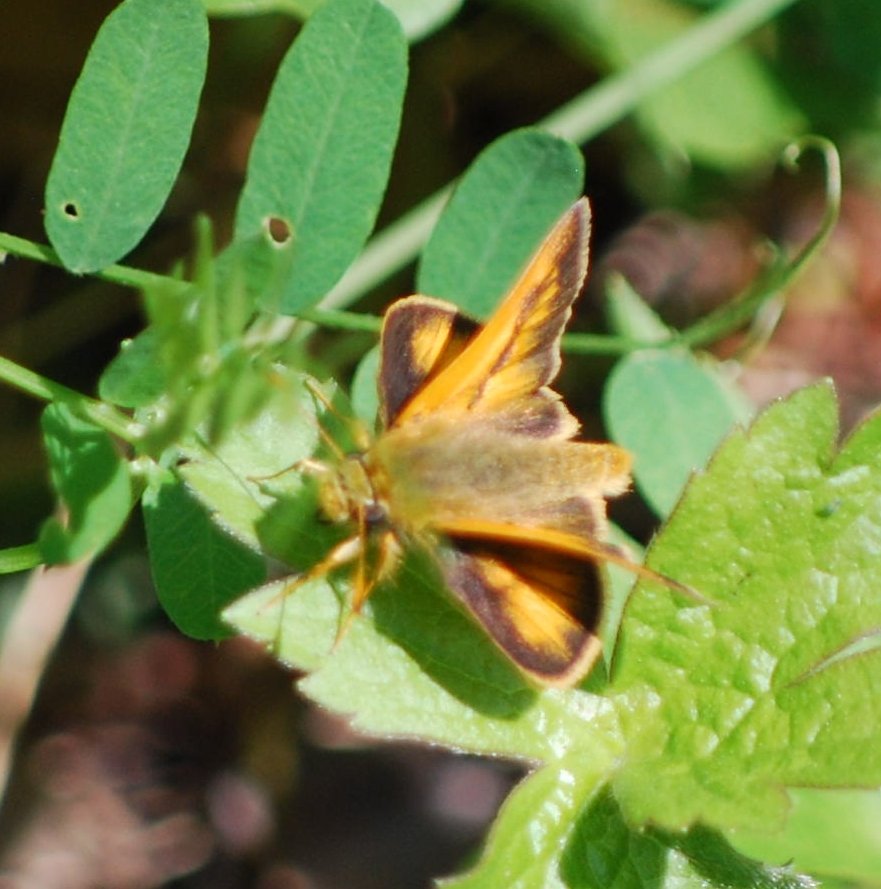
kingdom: Animalia
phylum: Arthropoda
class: Insecta
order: Lepidoptera
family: Hesperiidae
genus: Polites
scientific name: Polites
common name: Long Dash Skipper
